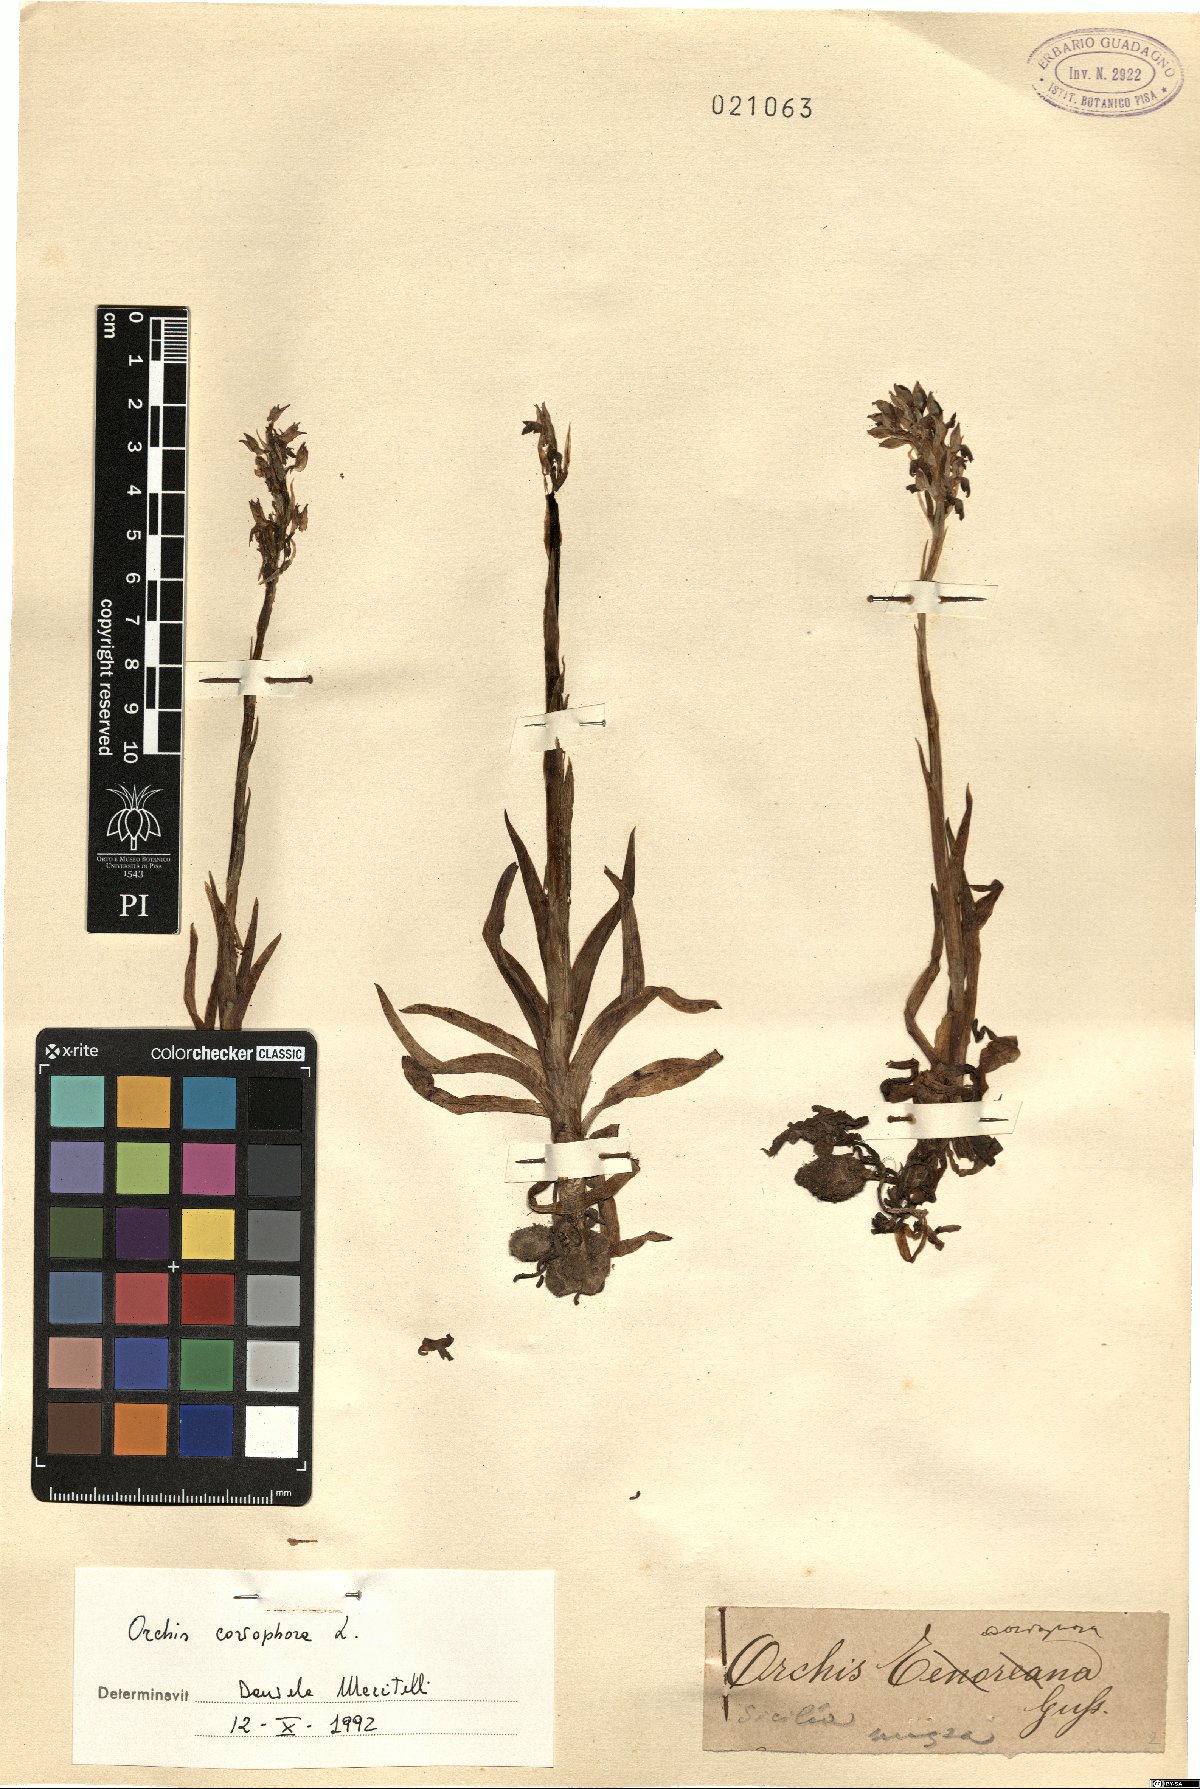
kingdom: Plantae
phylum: Tracheophyta
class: Liliopsida
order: Asparagales
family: Orchidaceae
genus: Anacamptis
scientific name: Anacamptis coriophora
